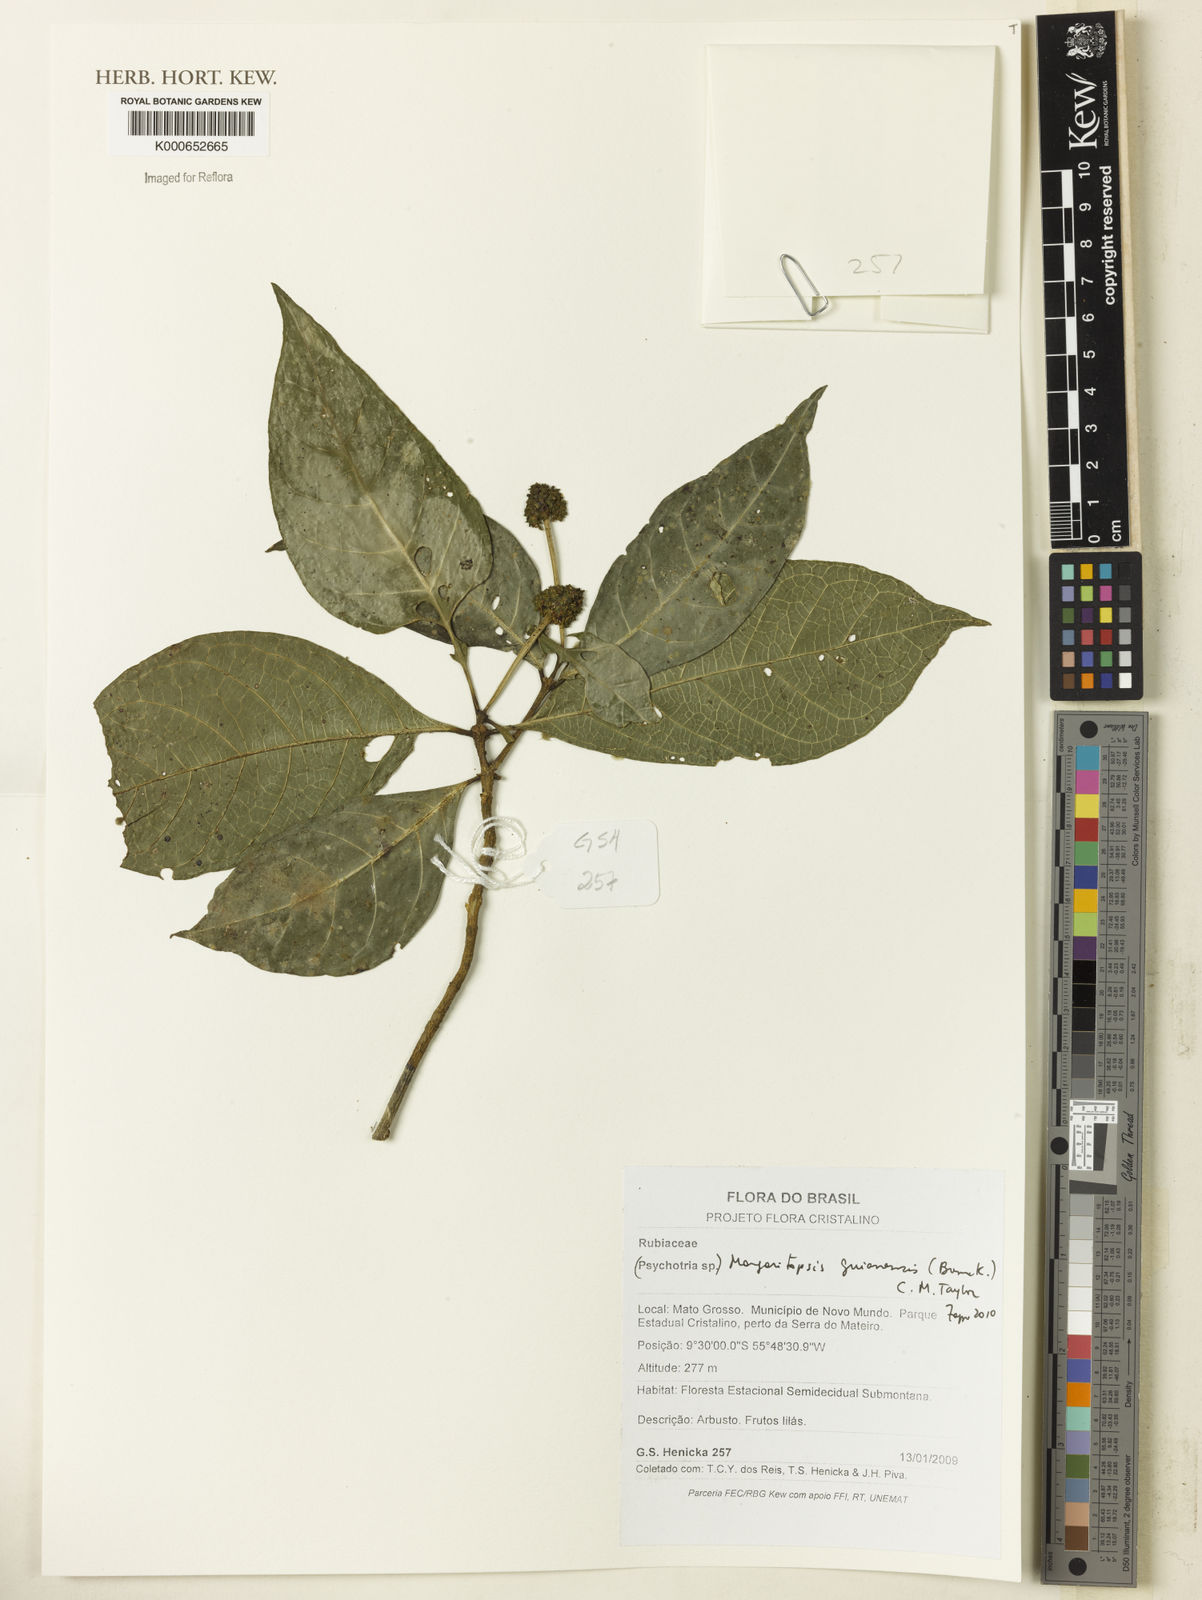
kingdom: Plantae
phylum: Tracheophyta
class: Magnoliopsida
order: Gentianales
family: Rubiaceae
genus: Eumachia
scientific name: Eumachia guianensis
